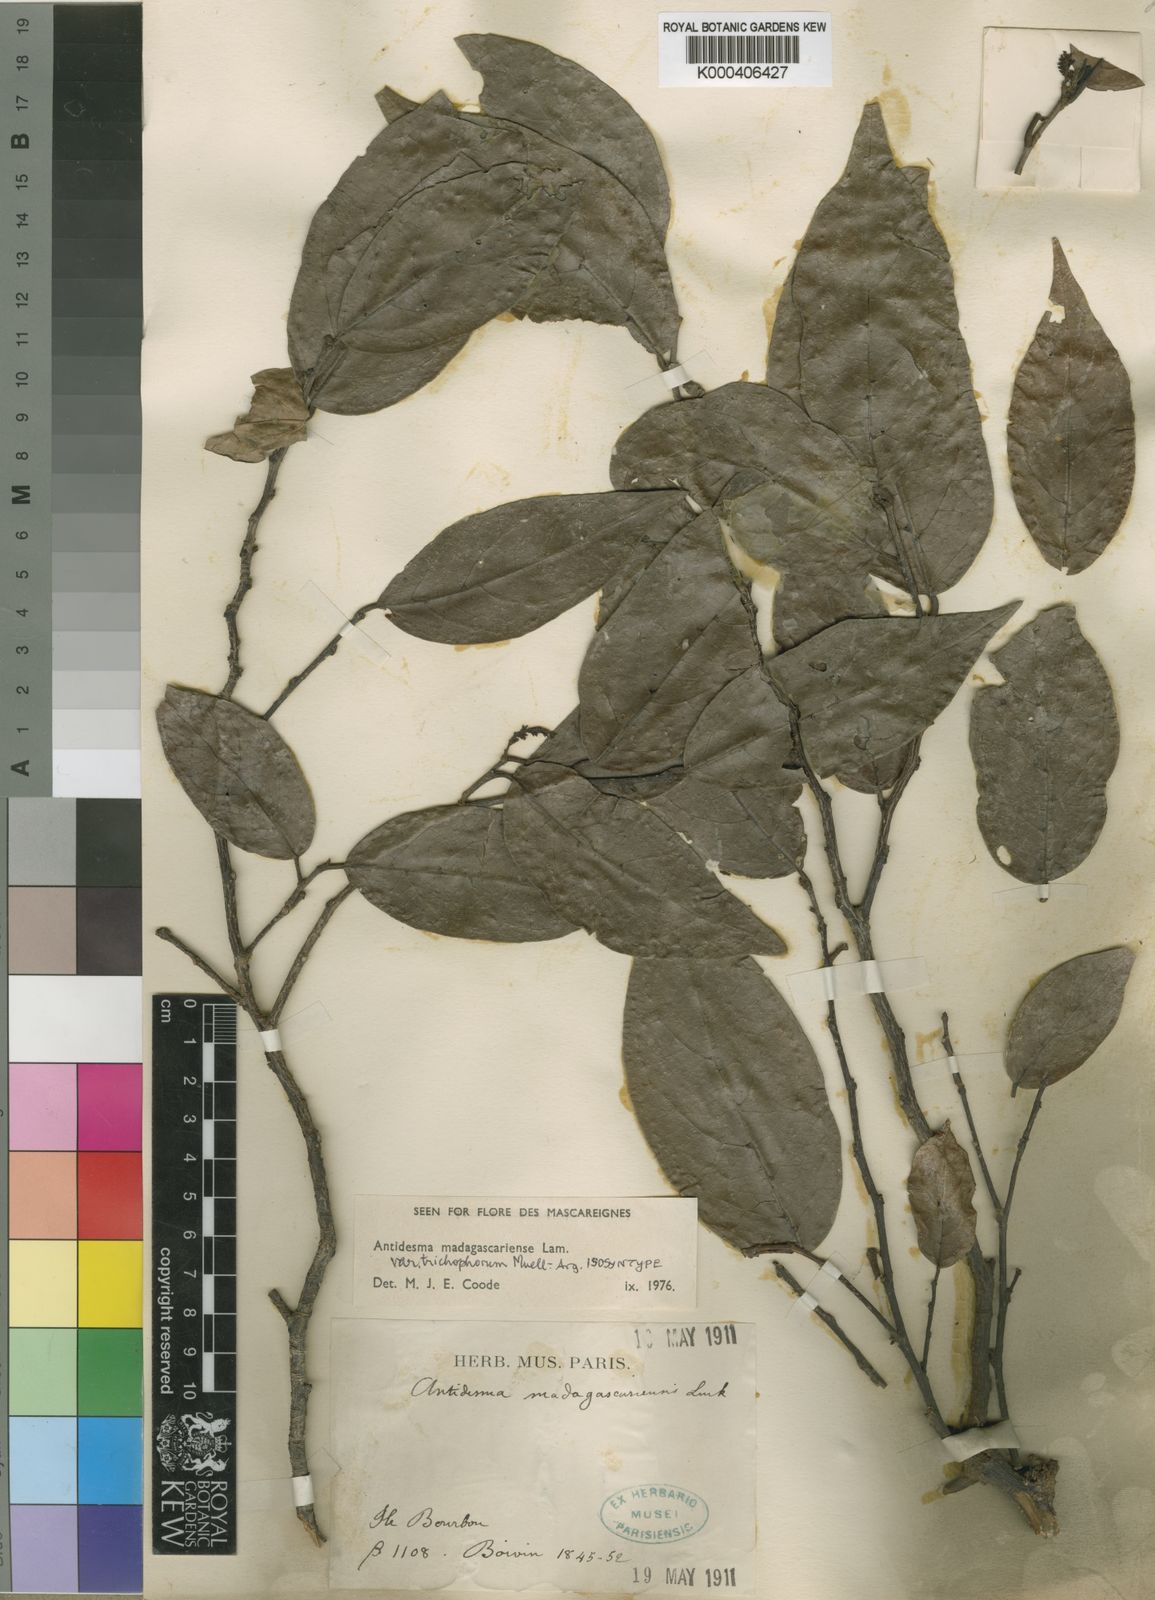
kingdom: Plantae
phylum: Tracheophyta
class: Magnoliopsida
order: Malpighiales
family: Phyllanthaceae
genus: Antidesma
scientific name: Antidesma madagascariense
